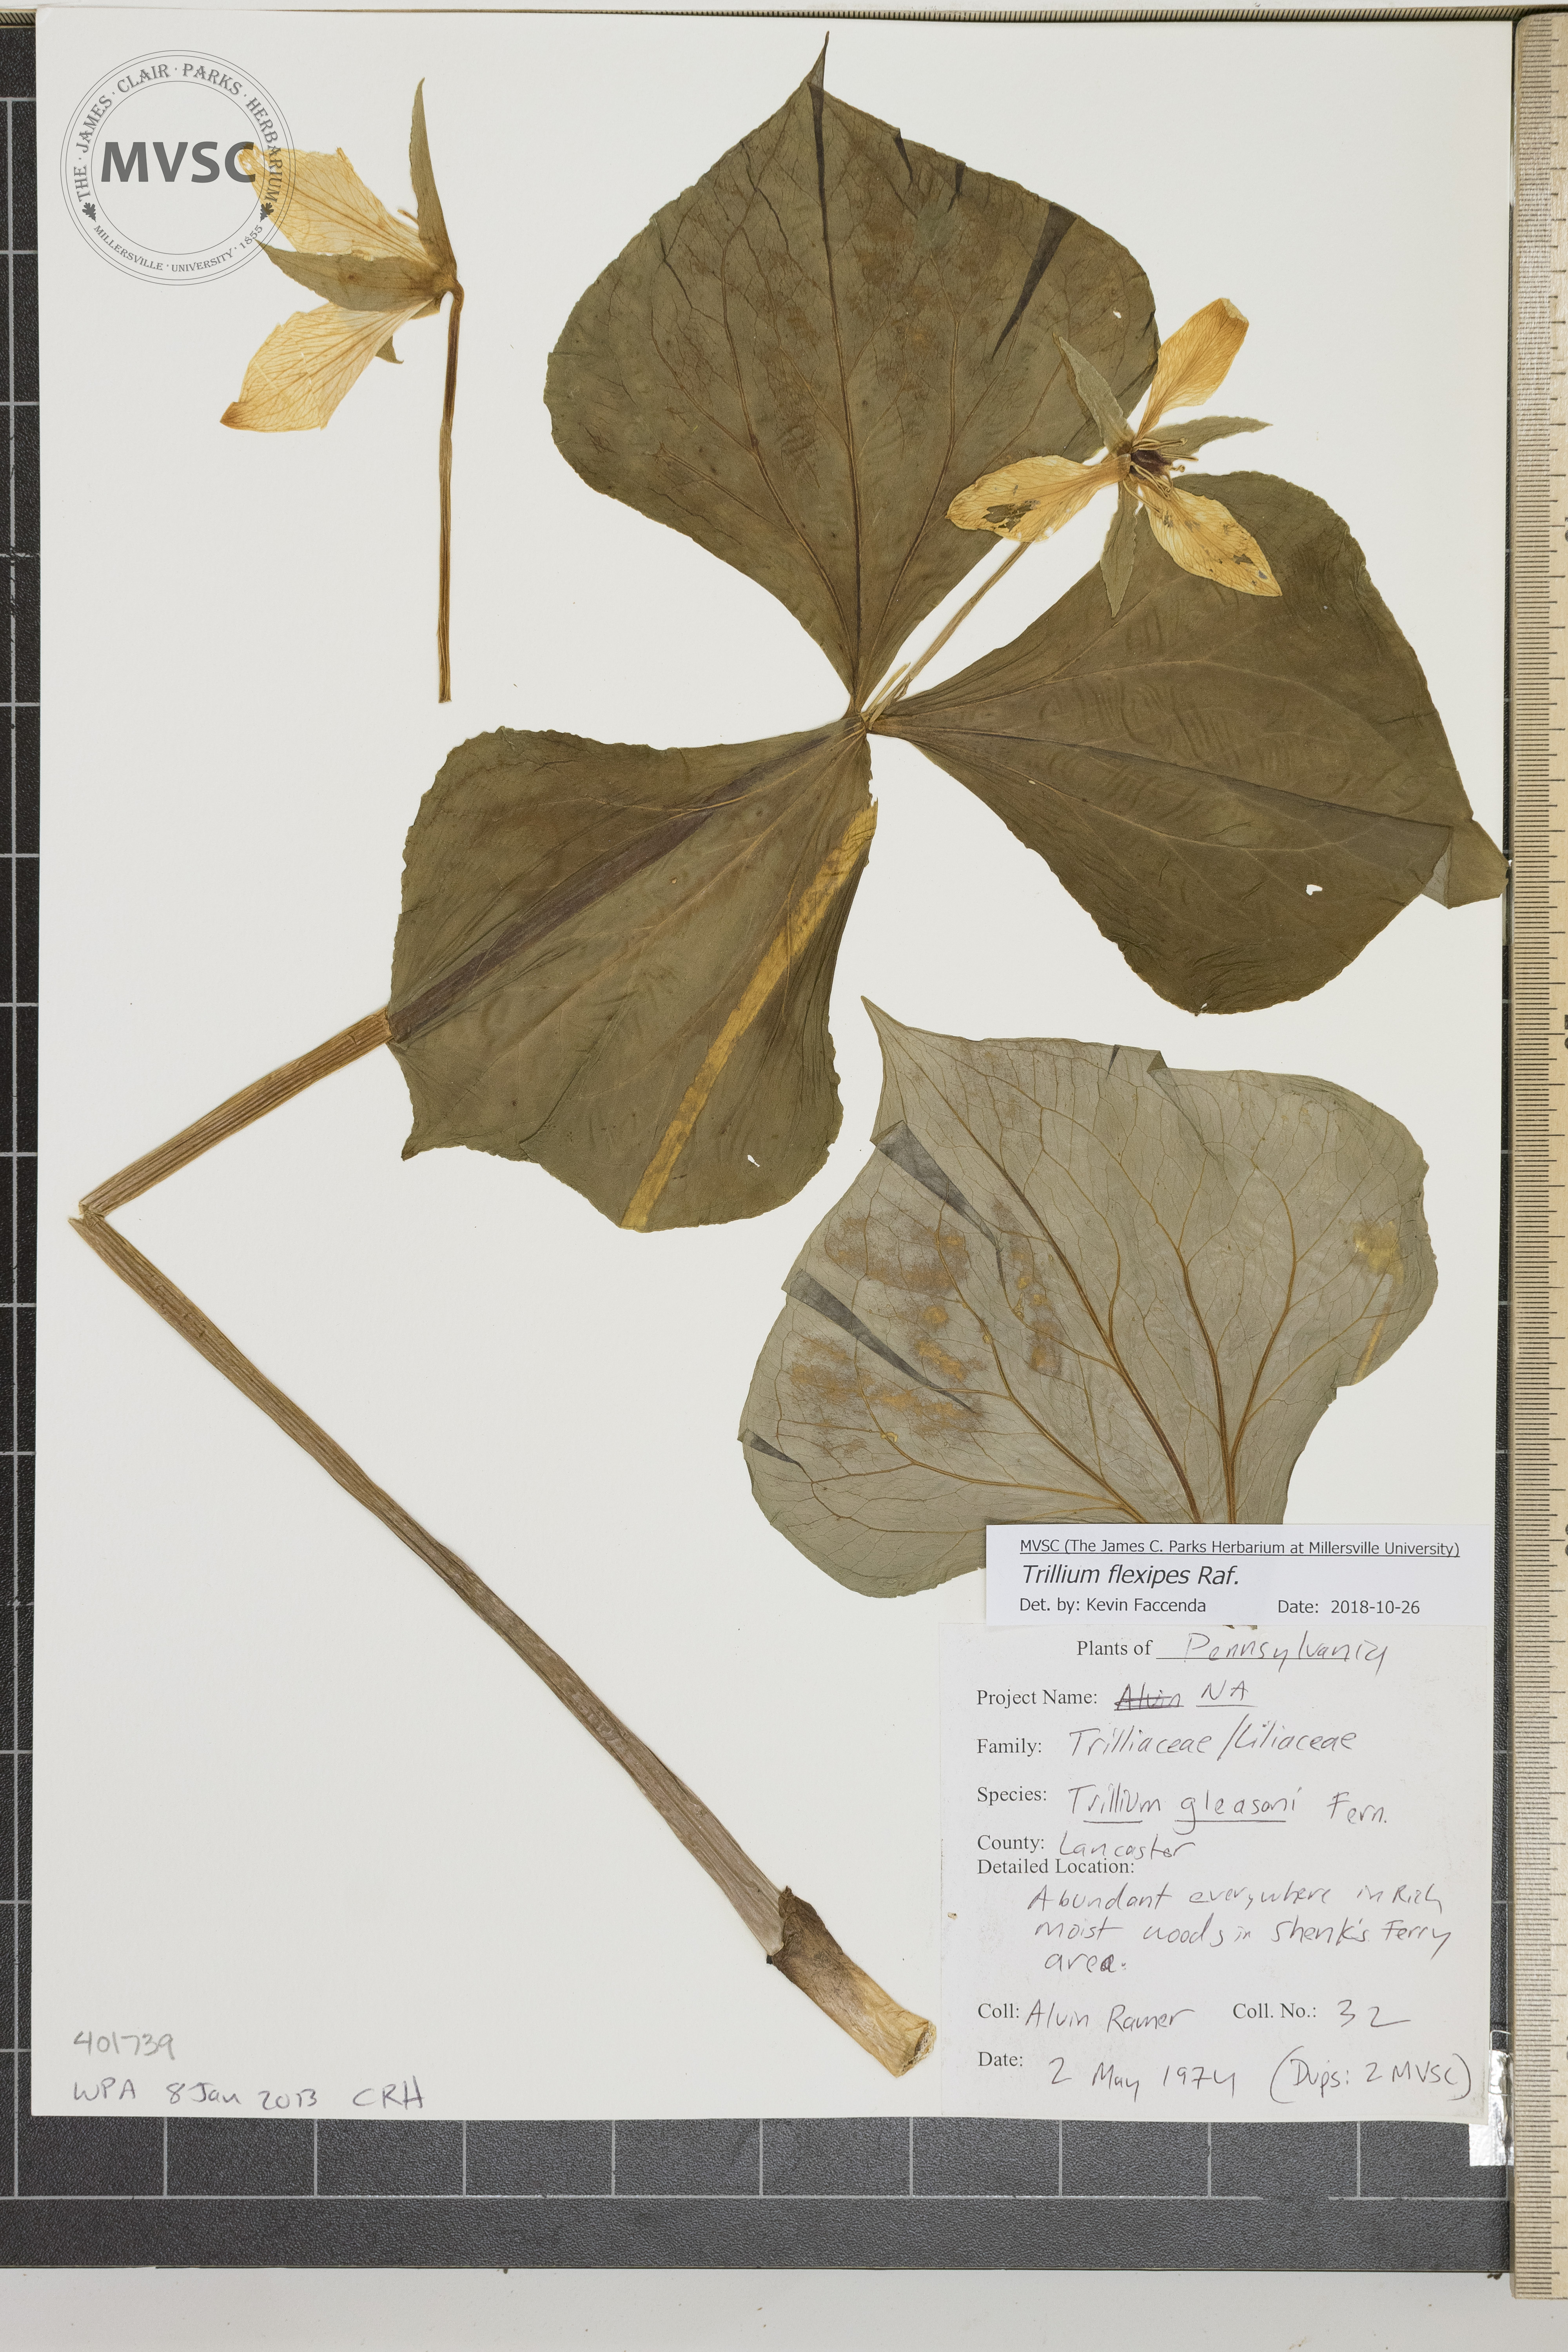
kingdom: Plantae
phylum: Tracheophyta
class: Liliopsida
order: Liliales
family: Melanthiaceae
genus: Trillium
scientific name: Trillium flexipes
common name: Trillium
